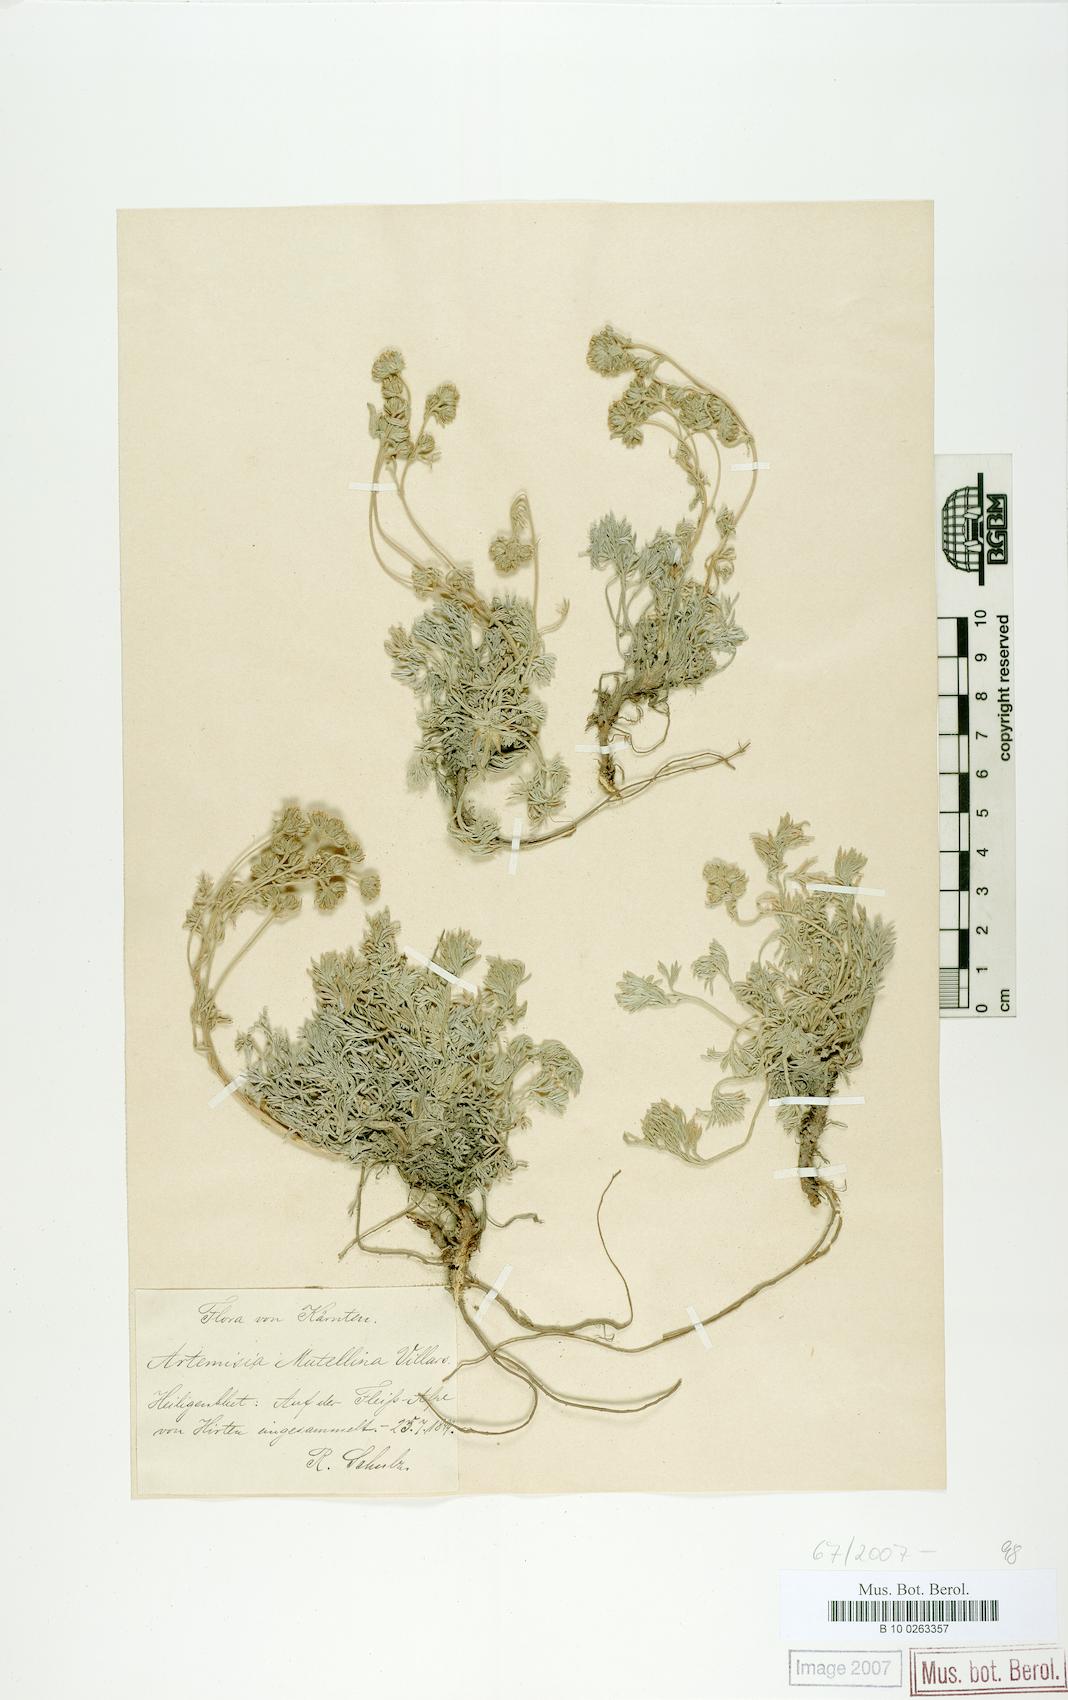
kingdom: Plantae
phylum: Tracheophyta
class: Magnoliopsida
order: Asterales
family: Asteraceae
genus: Artemisia
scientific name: Artemisia mutellina
